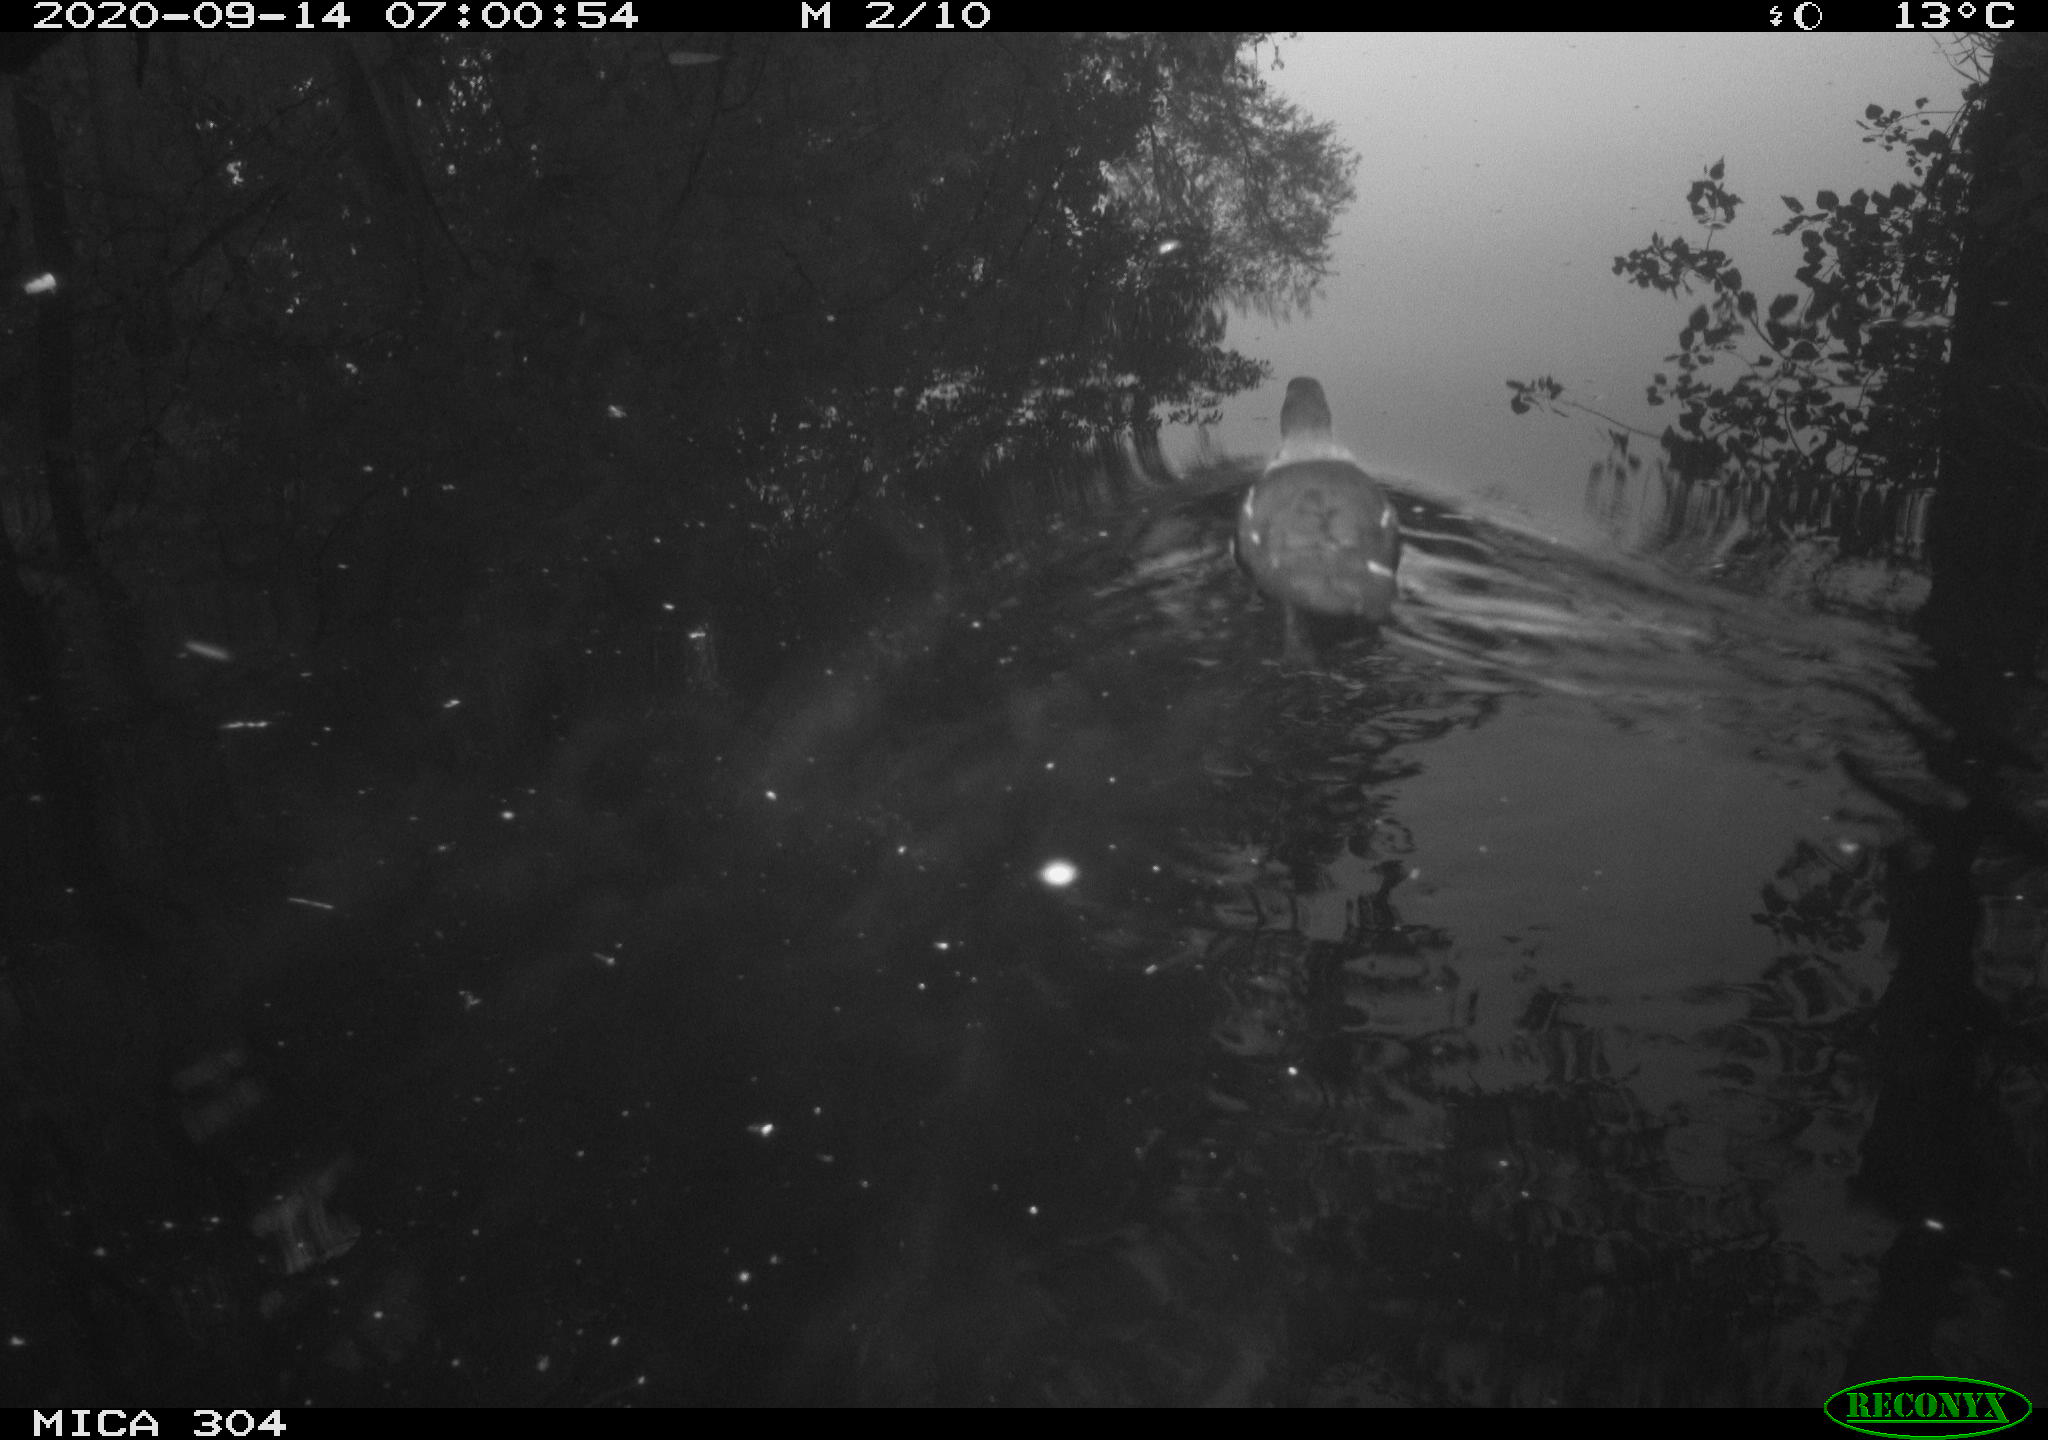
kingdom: Animalia
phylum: Chordata
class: Aves
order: Gruiformes
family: Rallidae
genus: Fulica
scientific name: Fulica atra
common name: Eurasian coot
